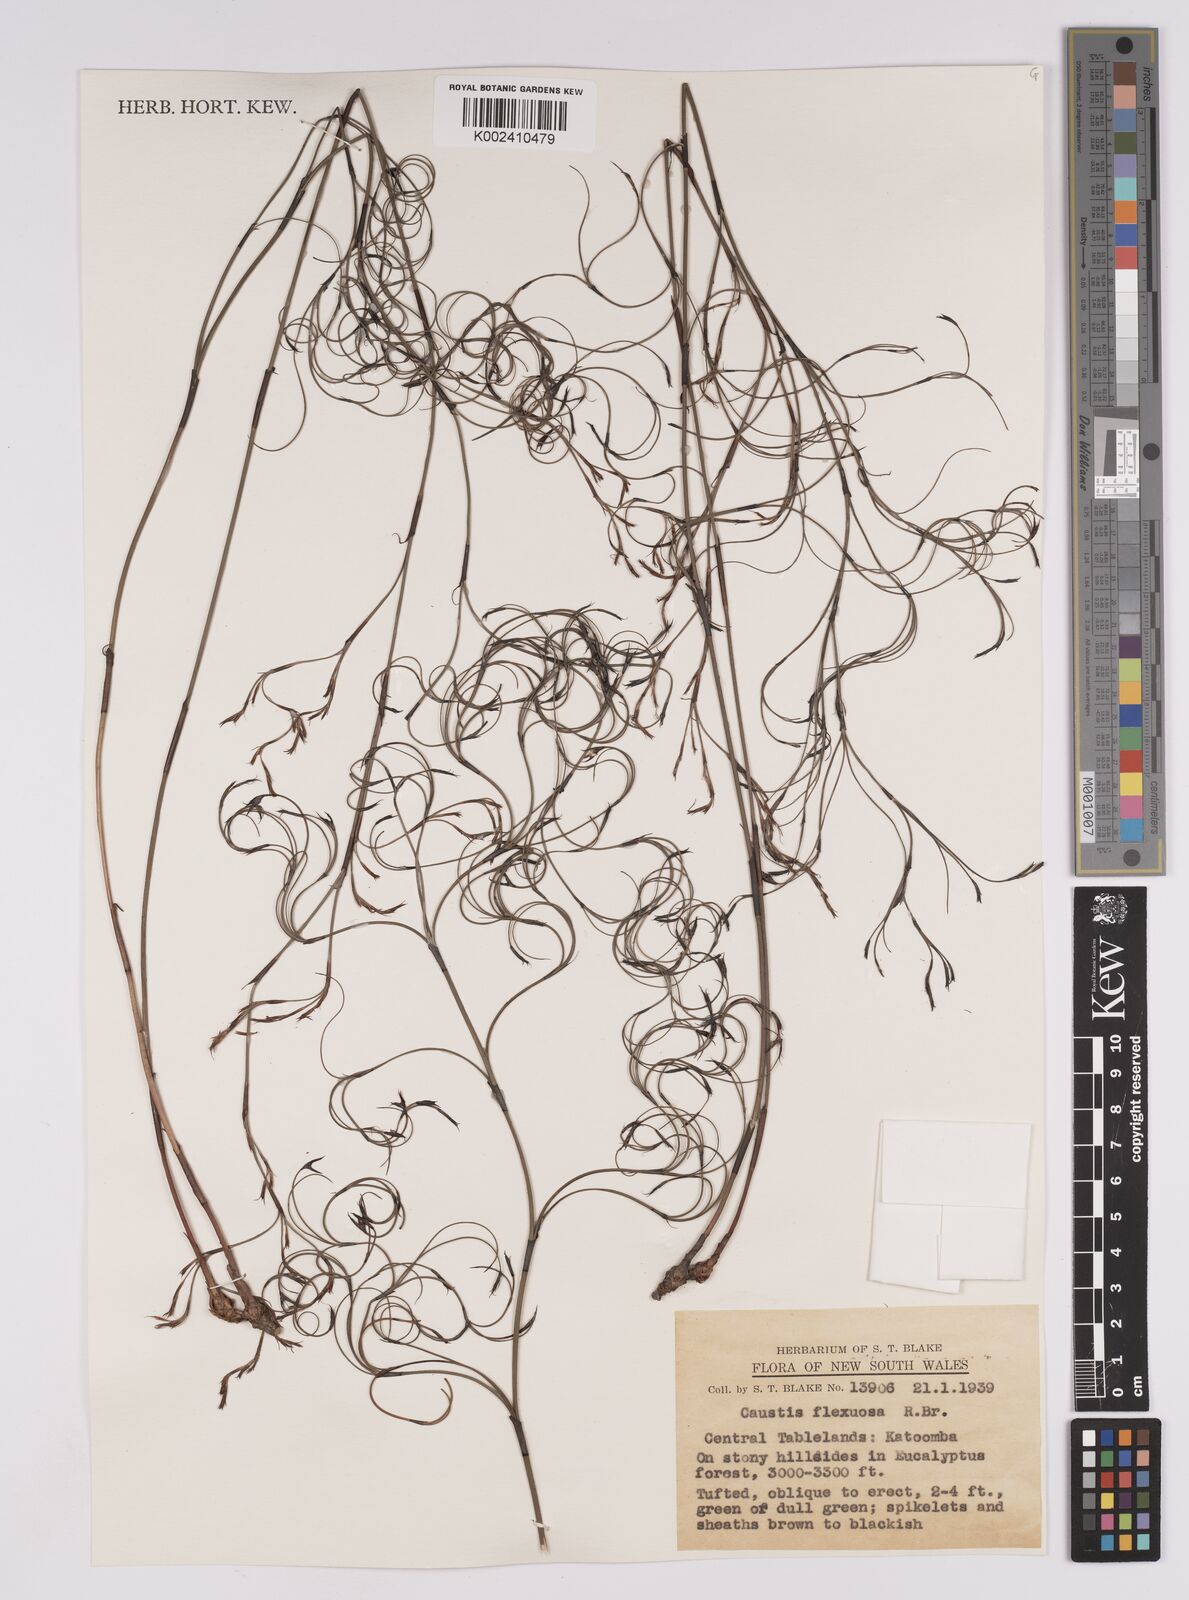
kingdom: Plantae
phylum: Tracheophyta
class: Liliopsida
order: Poales
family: Cyperaceae
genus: Caustis
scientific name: Caustis flexuosa
